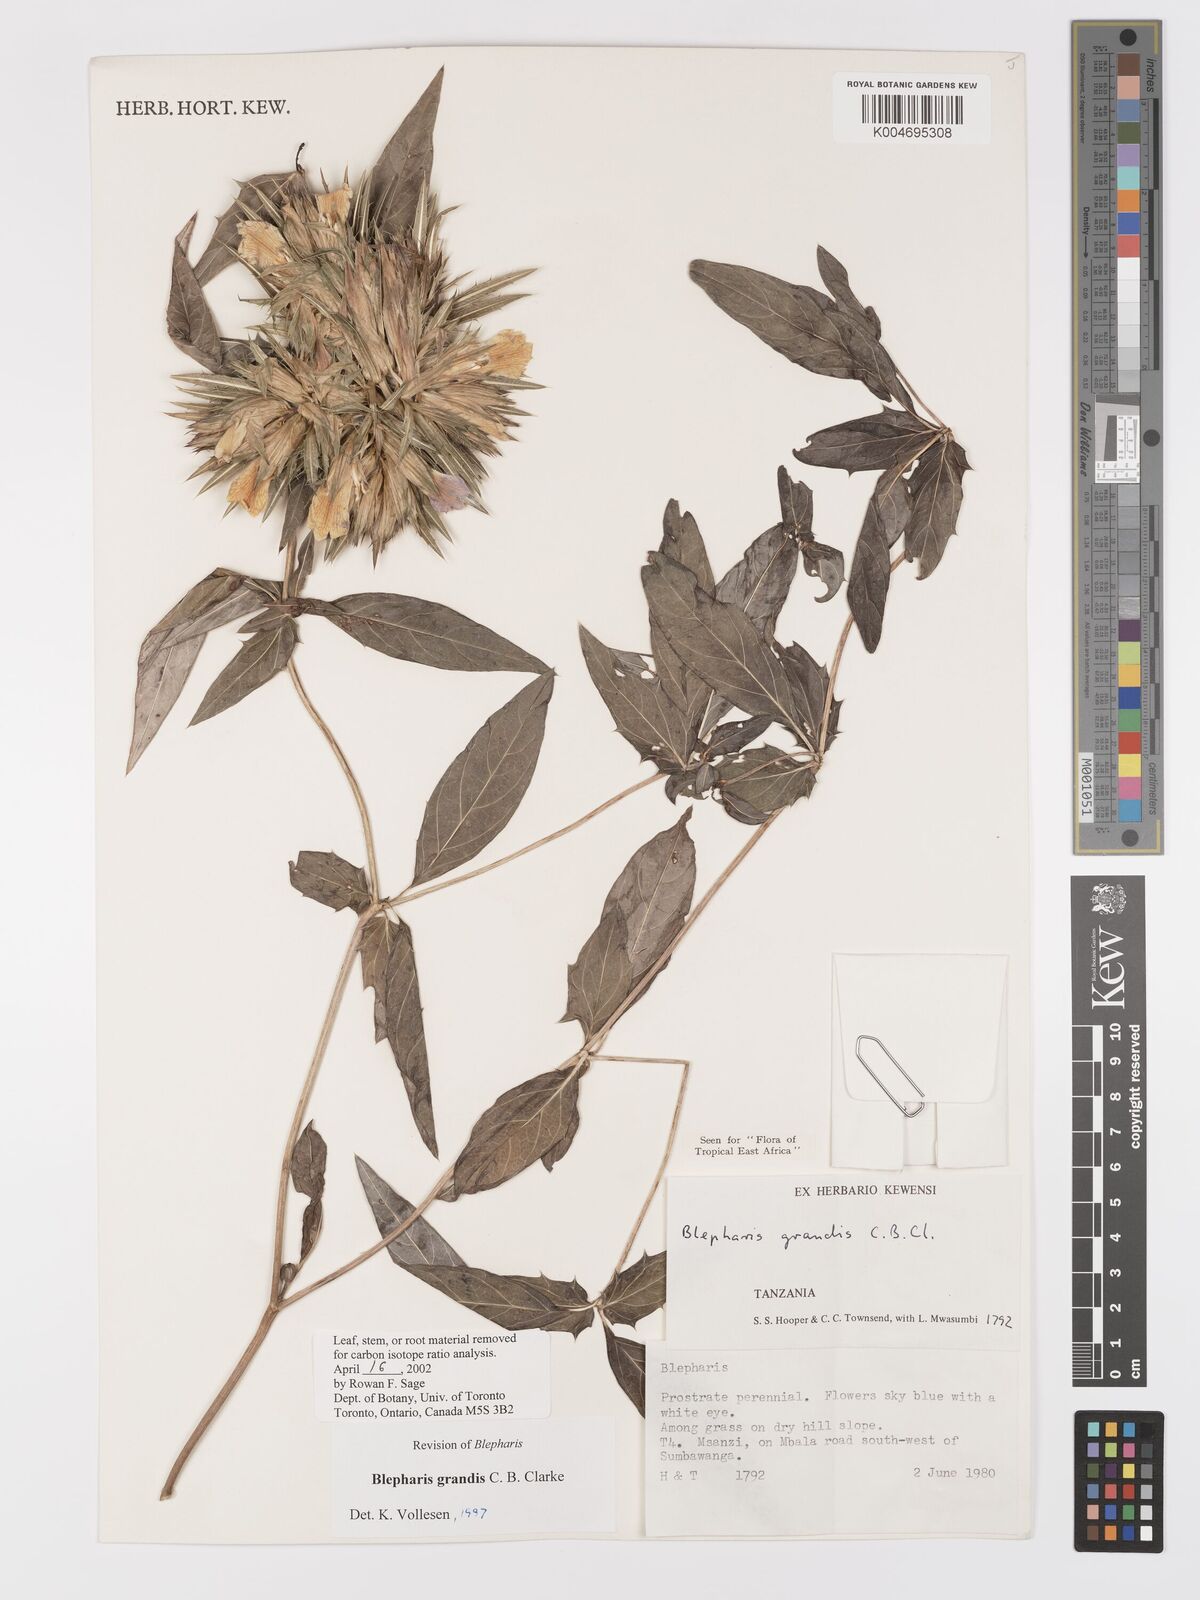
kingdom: Plantae
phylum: Tracheophyta
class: Magnoliopsida
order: Lamiales
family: Acanthaceae
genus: Blepharis
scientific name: Blepharis grandis
